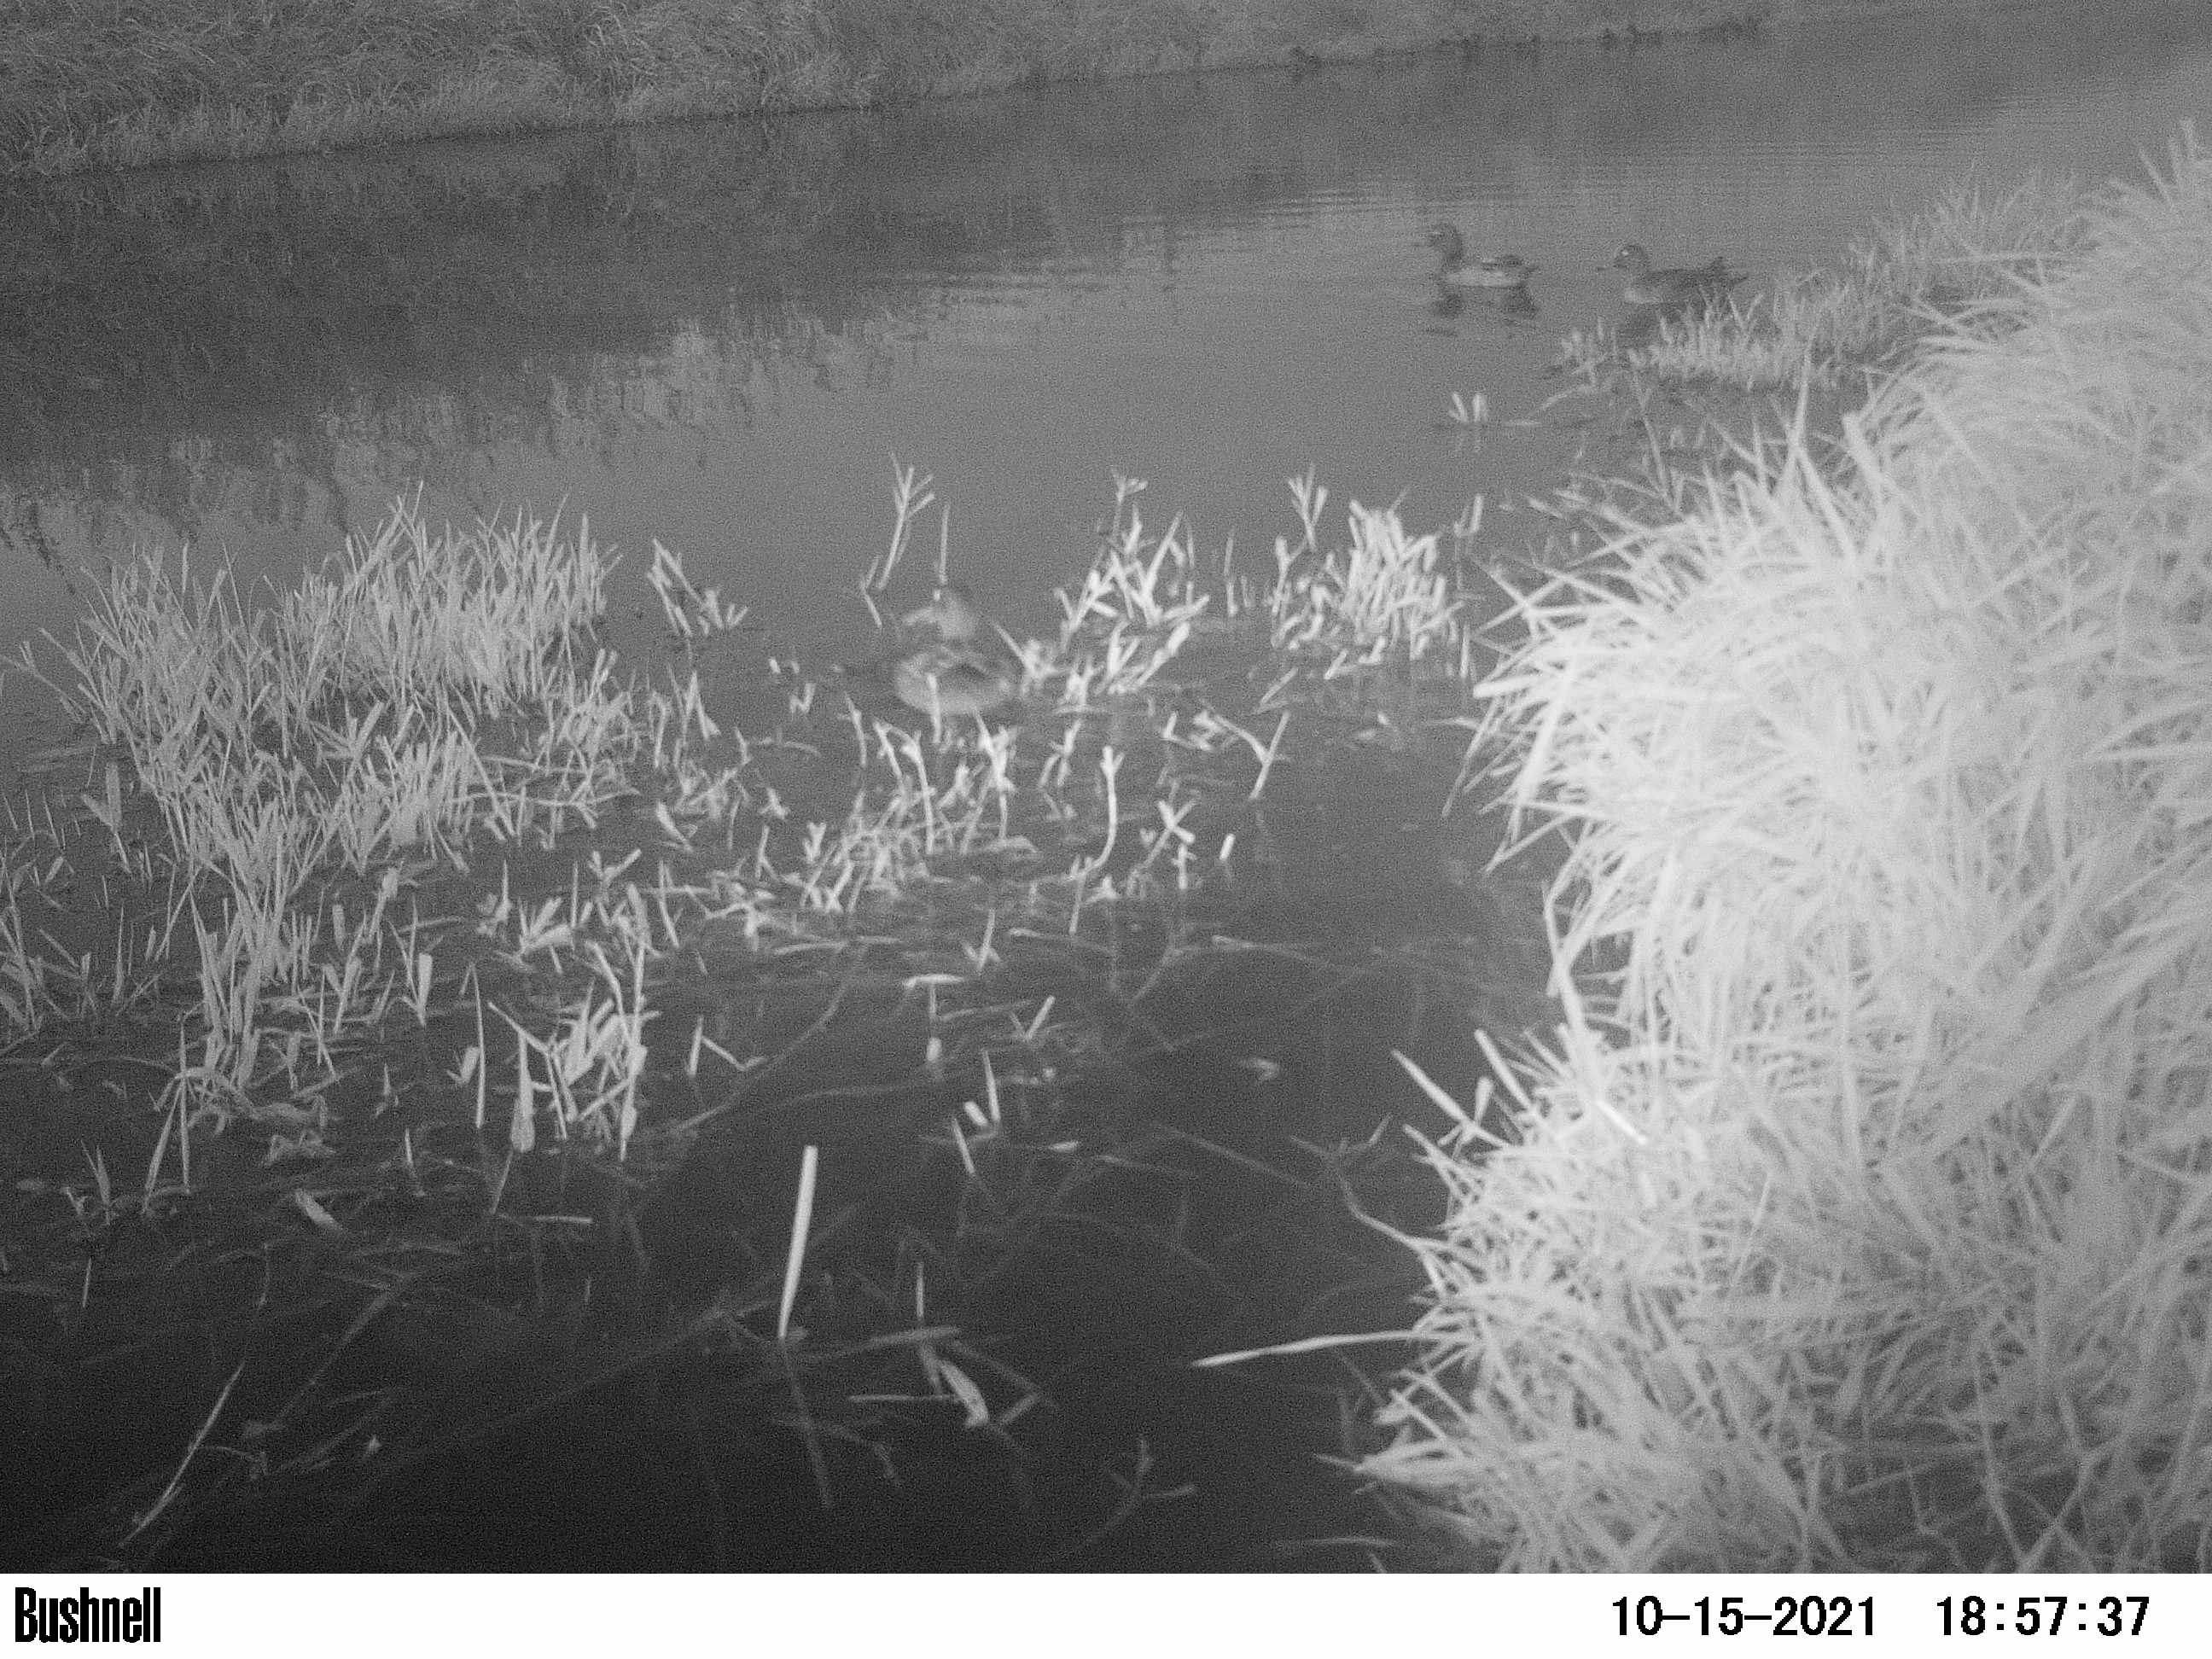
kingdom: Animalia
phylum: Chordata
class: Aves
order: Anseriformes
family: Anatidae
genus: Anas
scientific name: Anas
